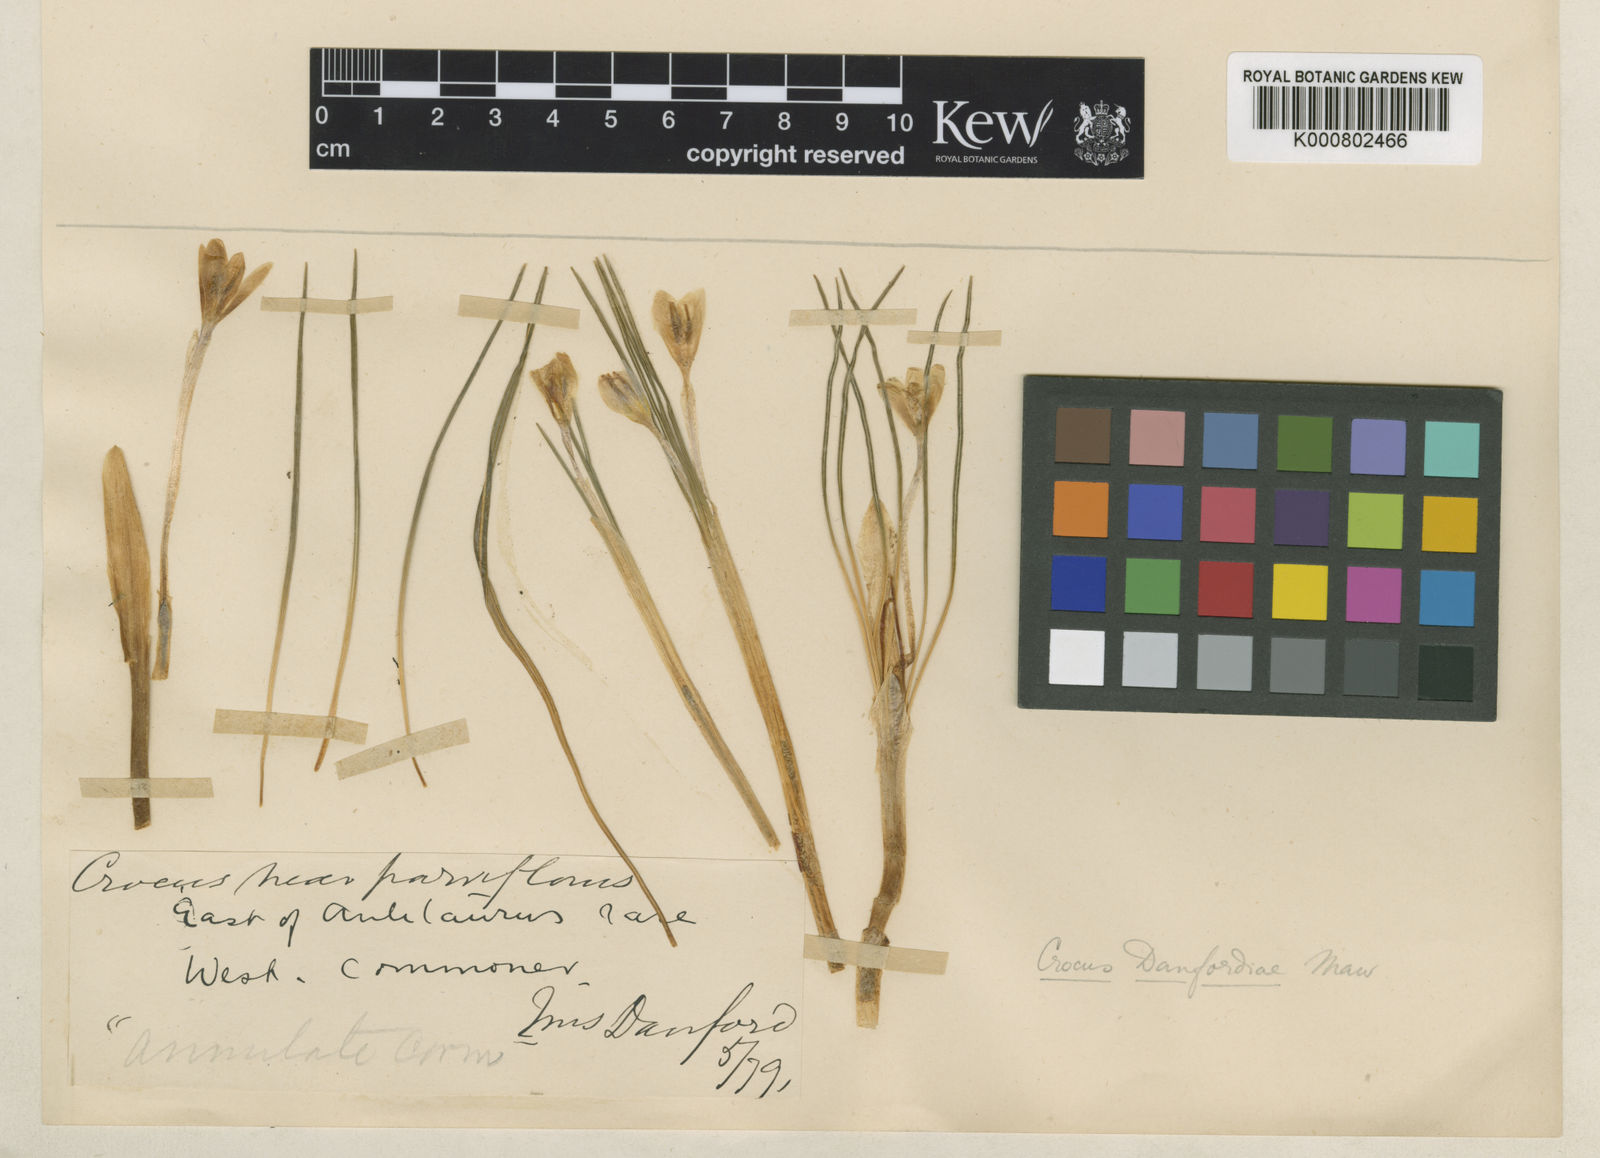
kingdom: Plantae
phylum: Tracheophyta
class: Liliopsida
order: Asparagales
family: Iridaceae
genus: Crocus
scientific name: Crocus danfordiae
